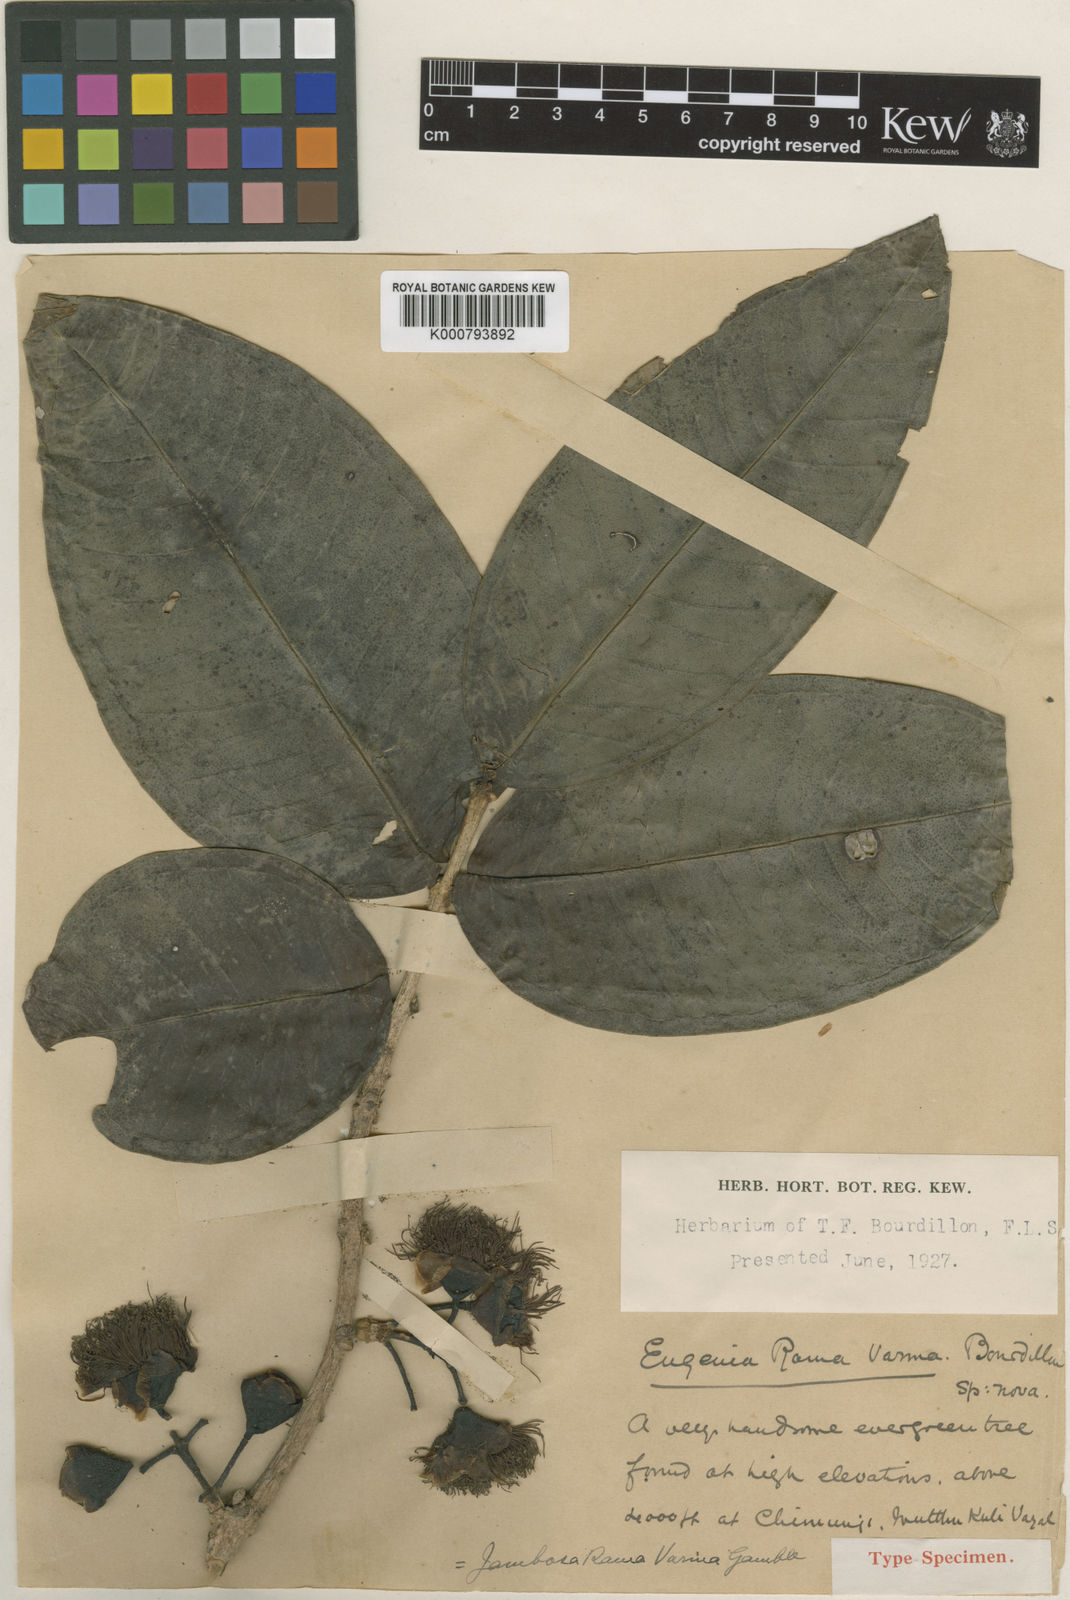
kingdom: Plantae
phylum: Tracheophyta
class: Magnoliopsida
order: Myrtales
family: Myrtaceae
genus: Syzygium
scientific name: Syzygium rama-varmae
